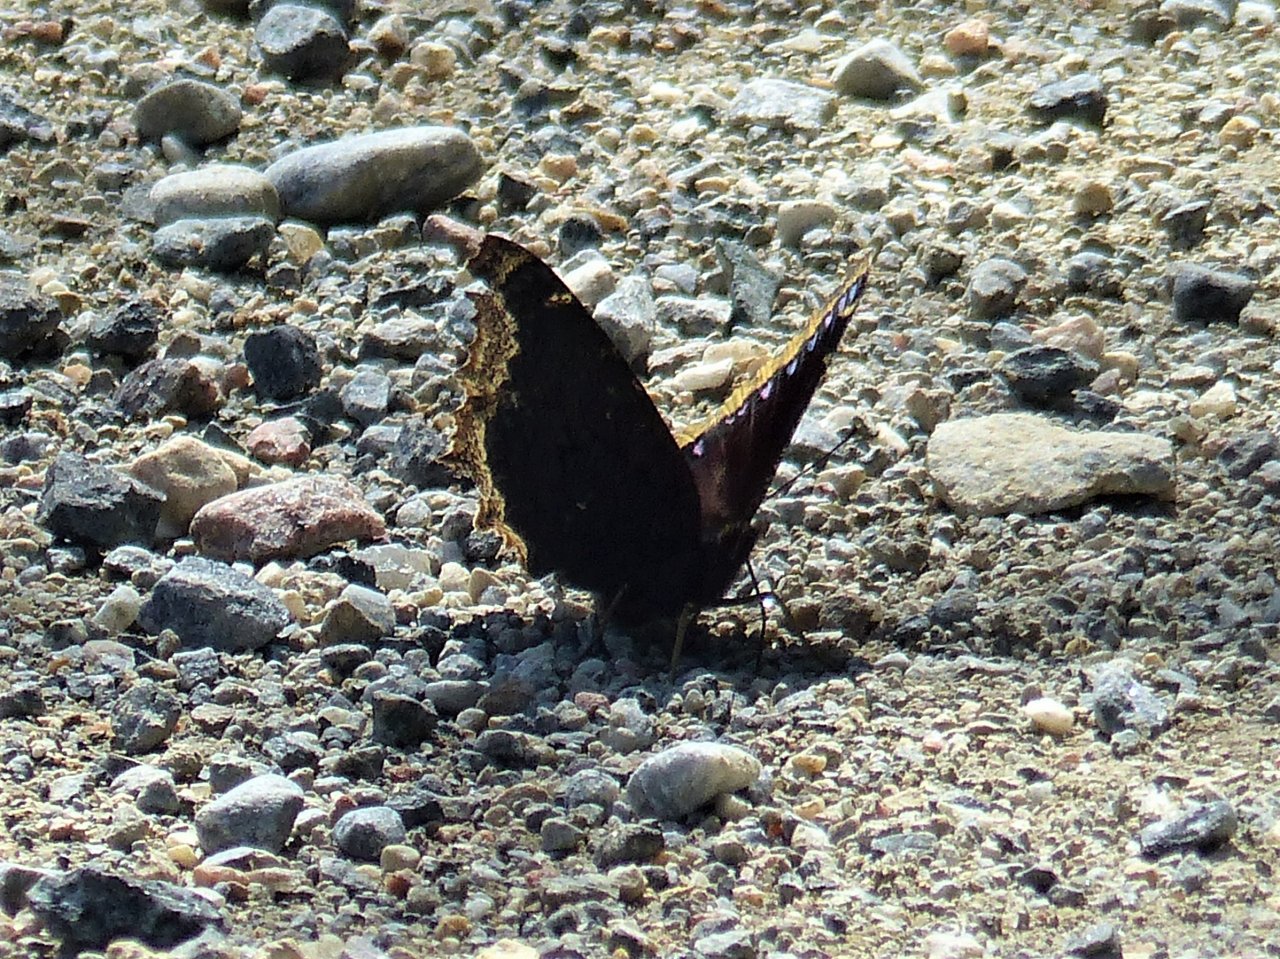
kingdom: Animalia
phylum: Arthropoda
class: Insecta
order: Lepidoptera
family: Nymphalidae
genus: Nymphalis
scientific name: Nymphalis antiopa
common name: Mourning Cloak
